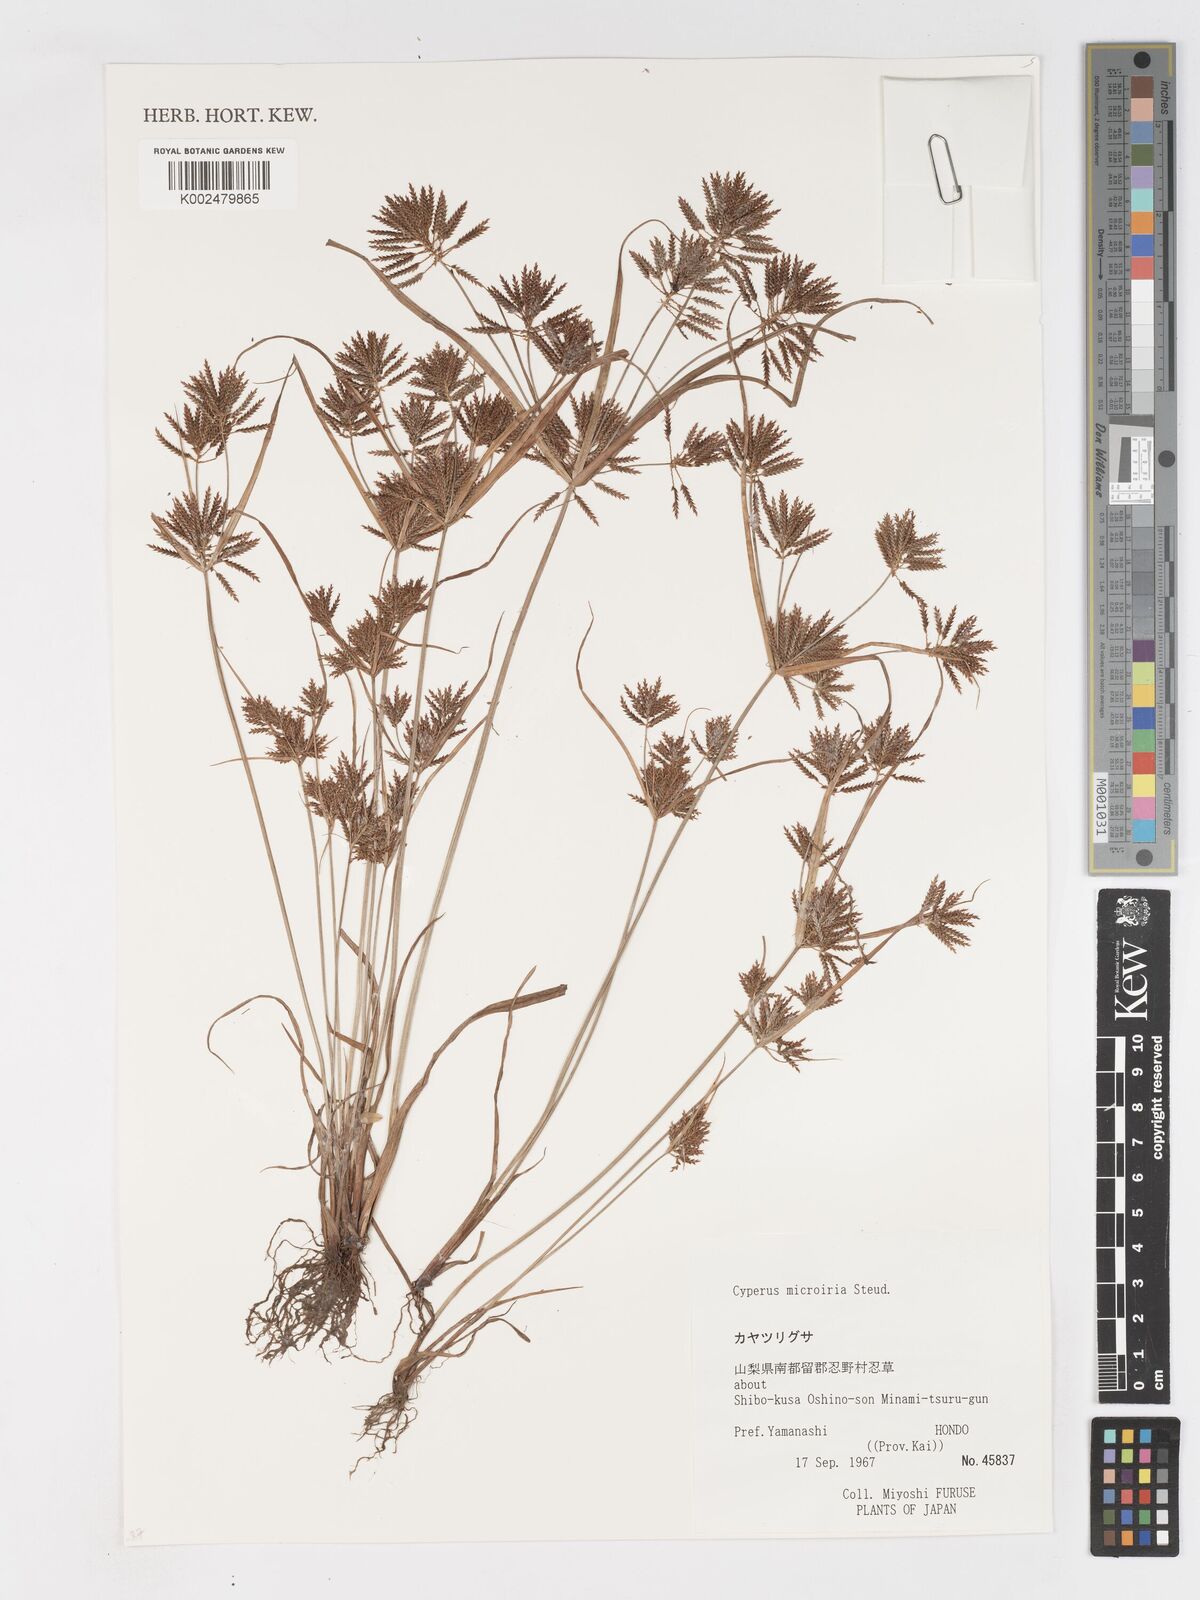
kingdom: Plantae
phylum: Tracheophyta
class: Liliopsida
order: Poales
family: Cyperaceae
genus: Cyperus
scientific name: Cyperus iria
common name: Ricefield flatsedge
